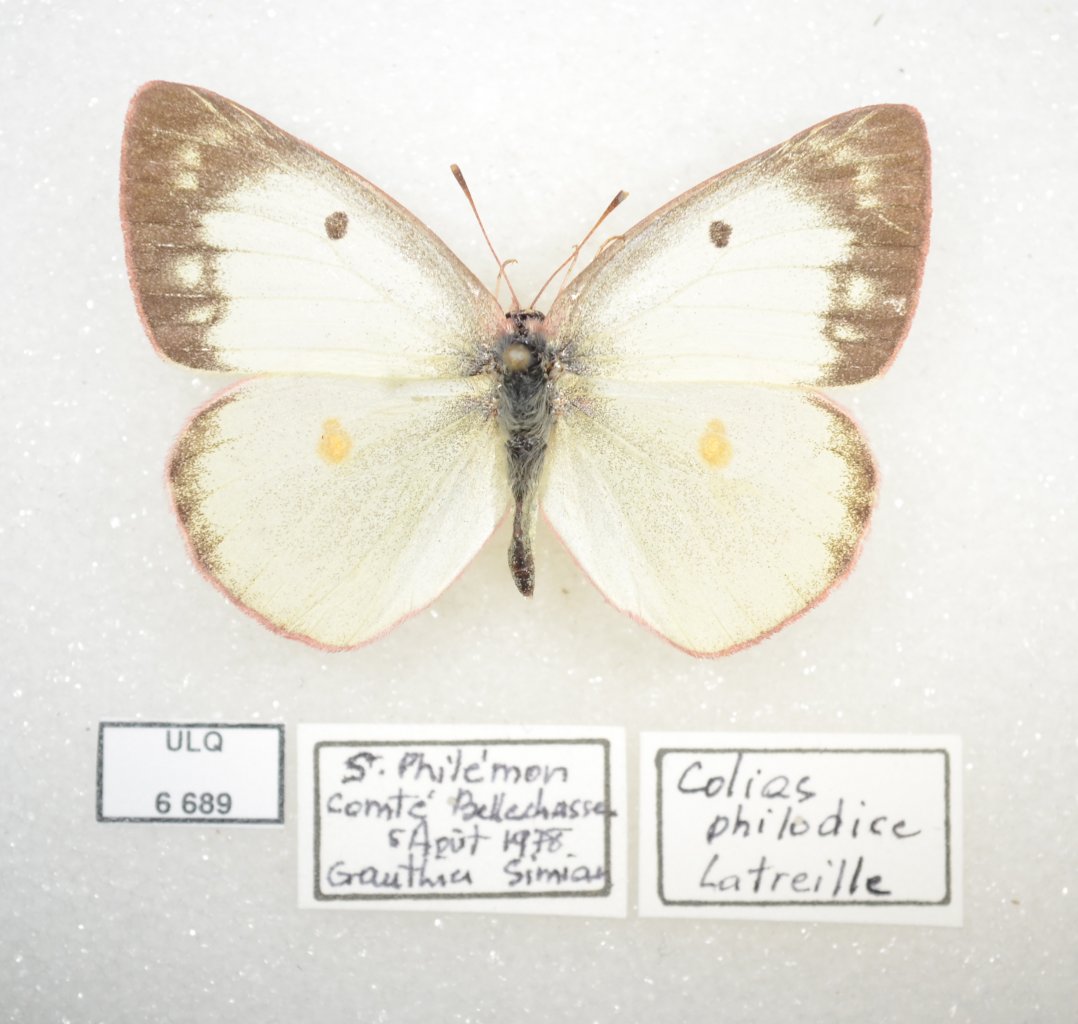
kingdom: Animalia
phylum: Arthropoda
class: Insecta
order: Lepidoptera
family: Pieridae
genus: Colias
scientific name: Colias philodice
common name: Clouded Sulphur
